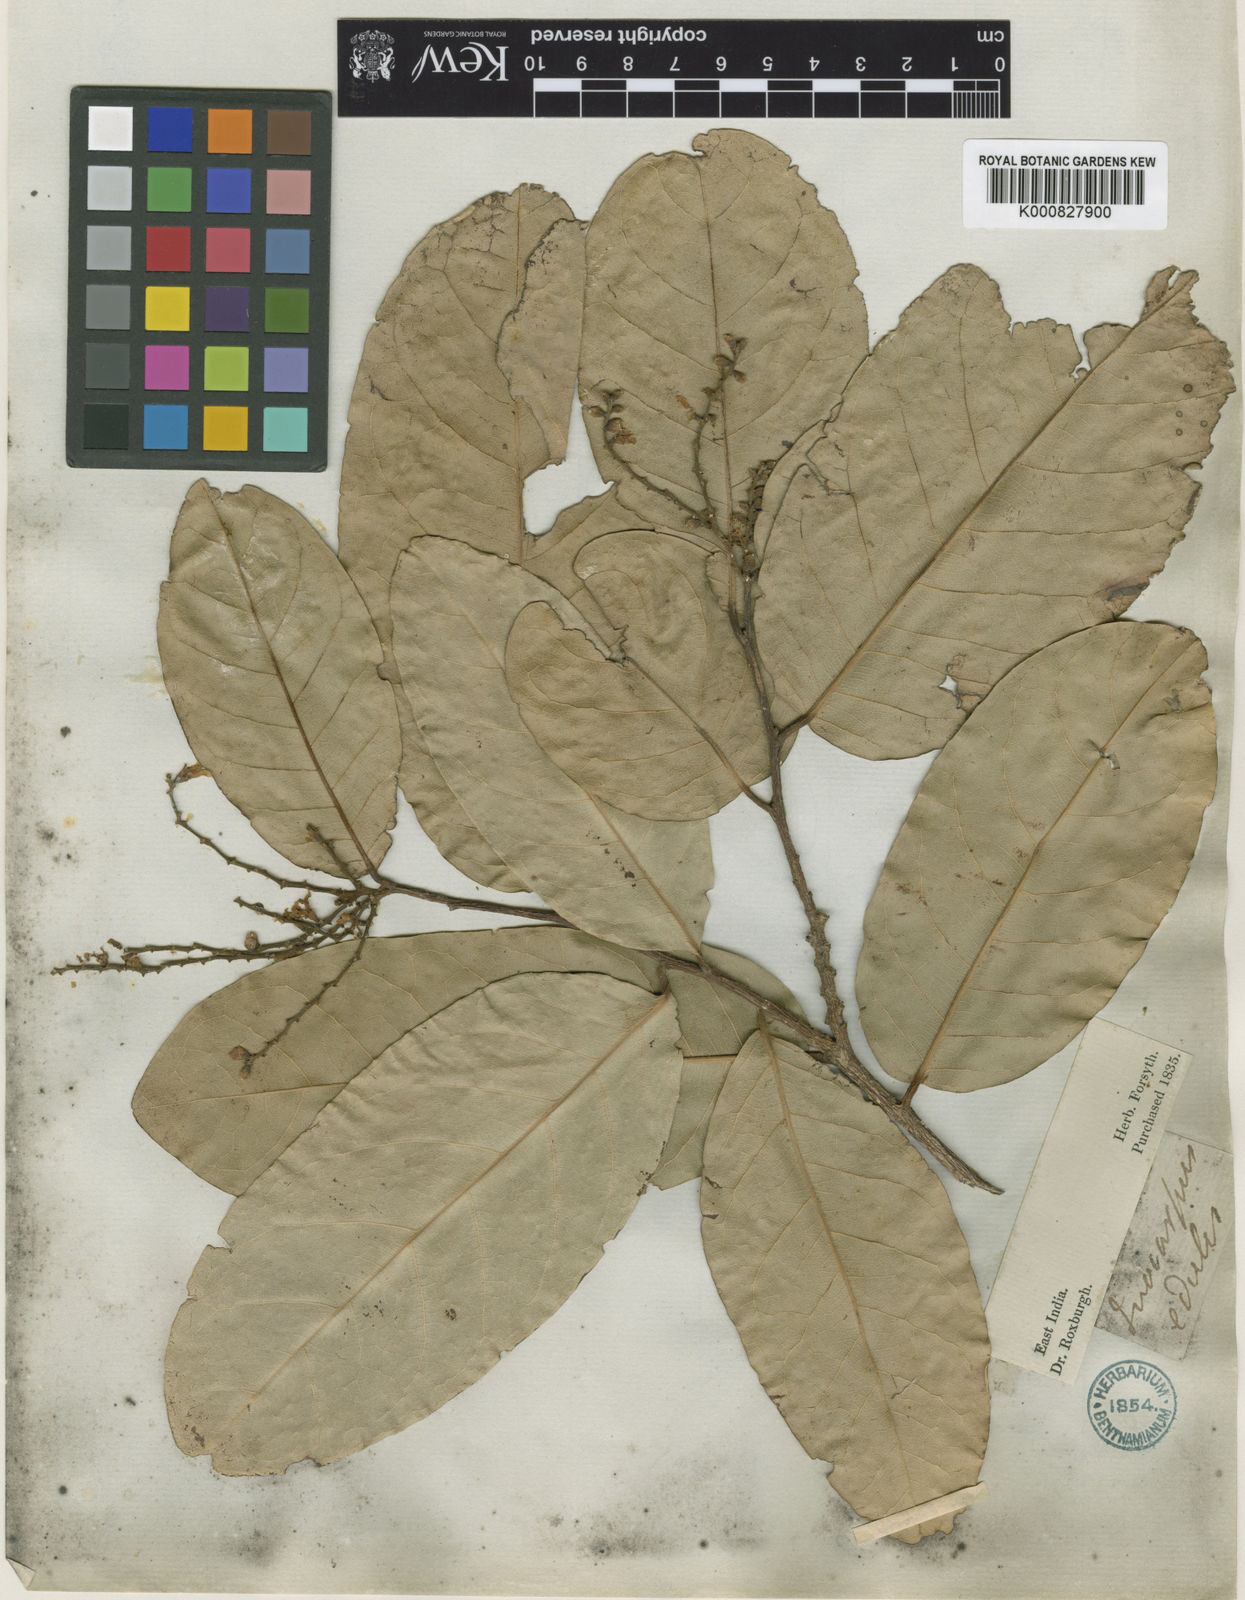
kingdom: Plantae
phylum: Tracheophyta
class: Magnoliopsida
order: Fabales
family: Fabaceae
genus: Inocarpus
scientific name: Inocarpus fagifer
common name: Polynesian chestnut
